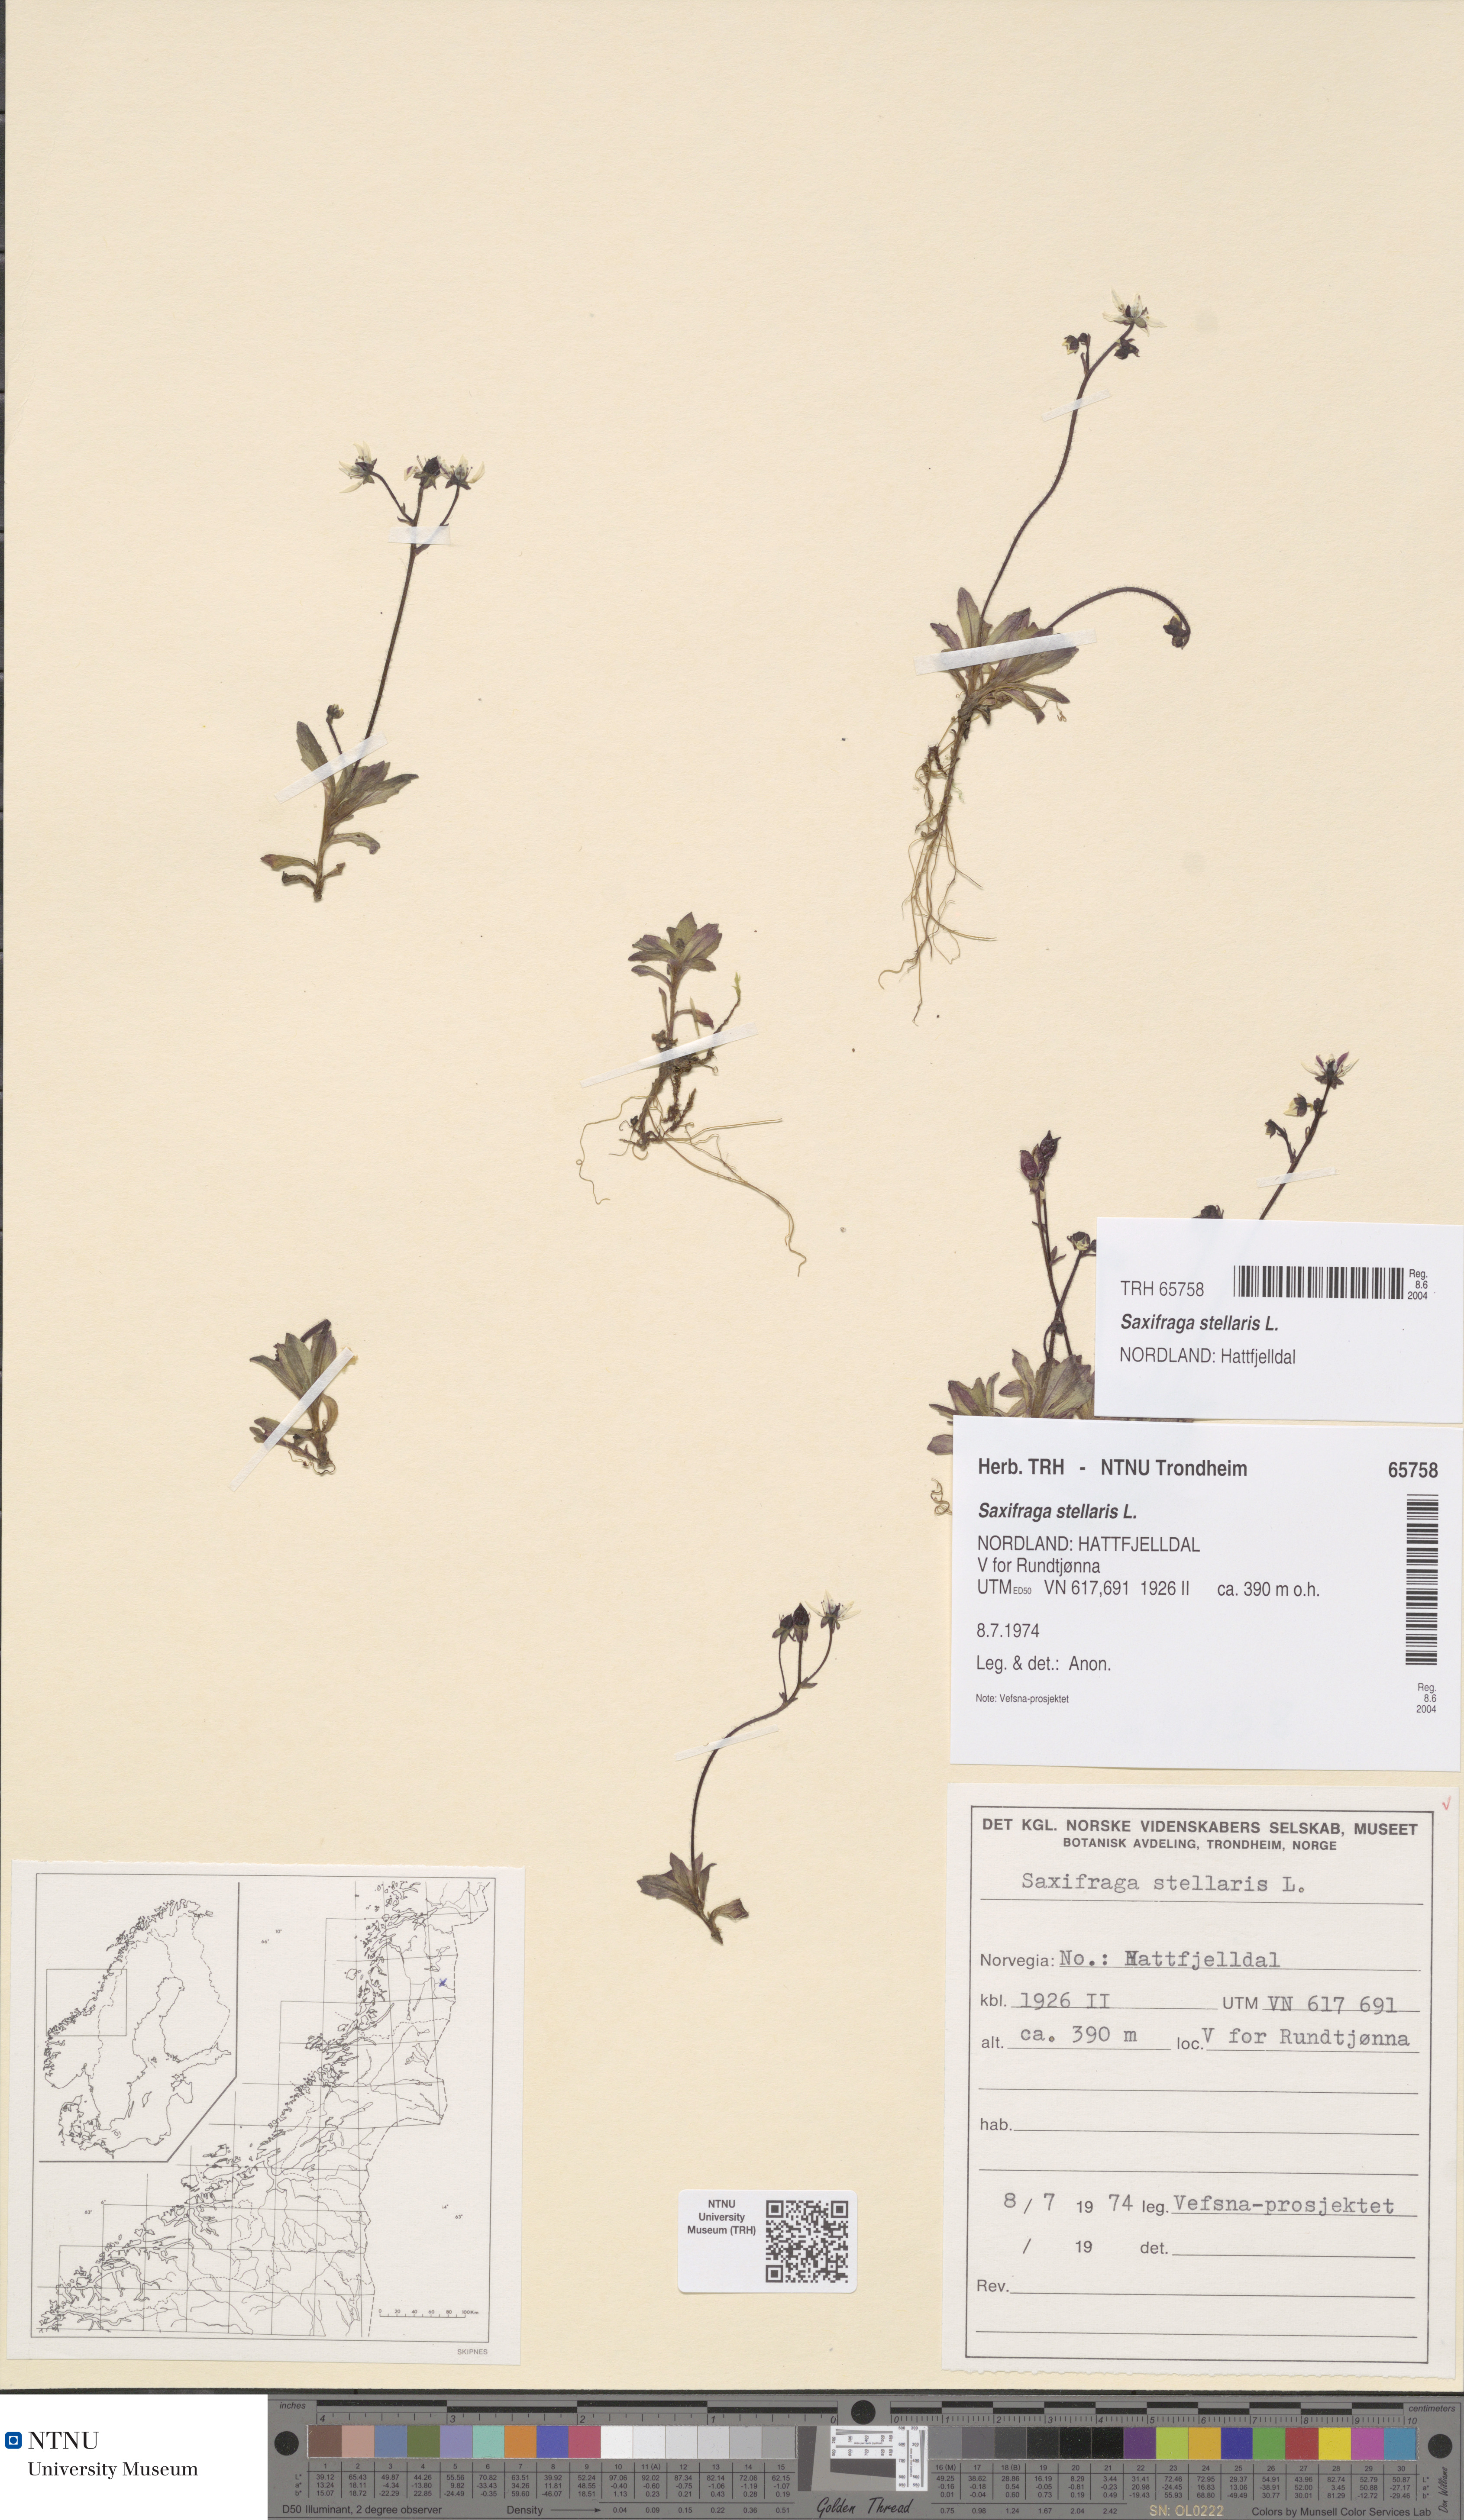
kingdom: Plantae
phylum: Tracheophyta
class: Magnoliopsida
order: Saxifragales
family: Saxifragaceae
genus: Micranthes
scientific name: Micranthes stellaris
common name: Starry saxifrage
